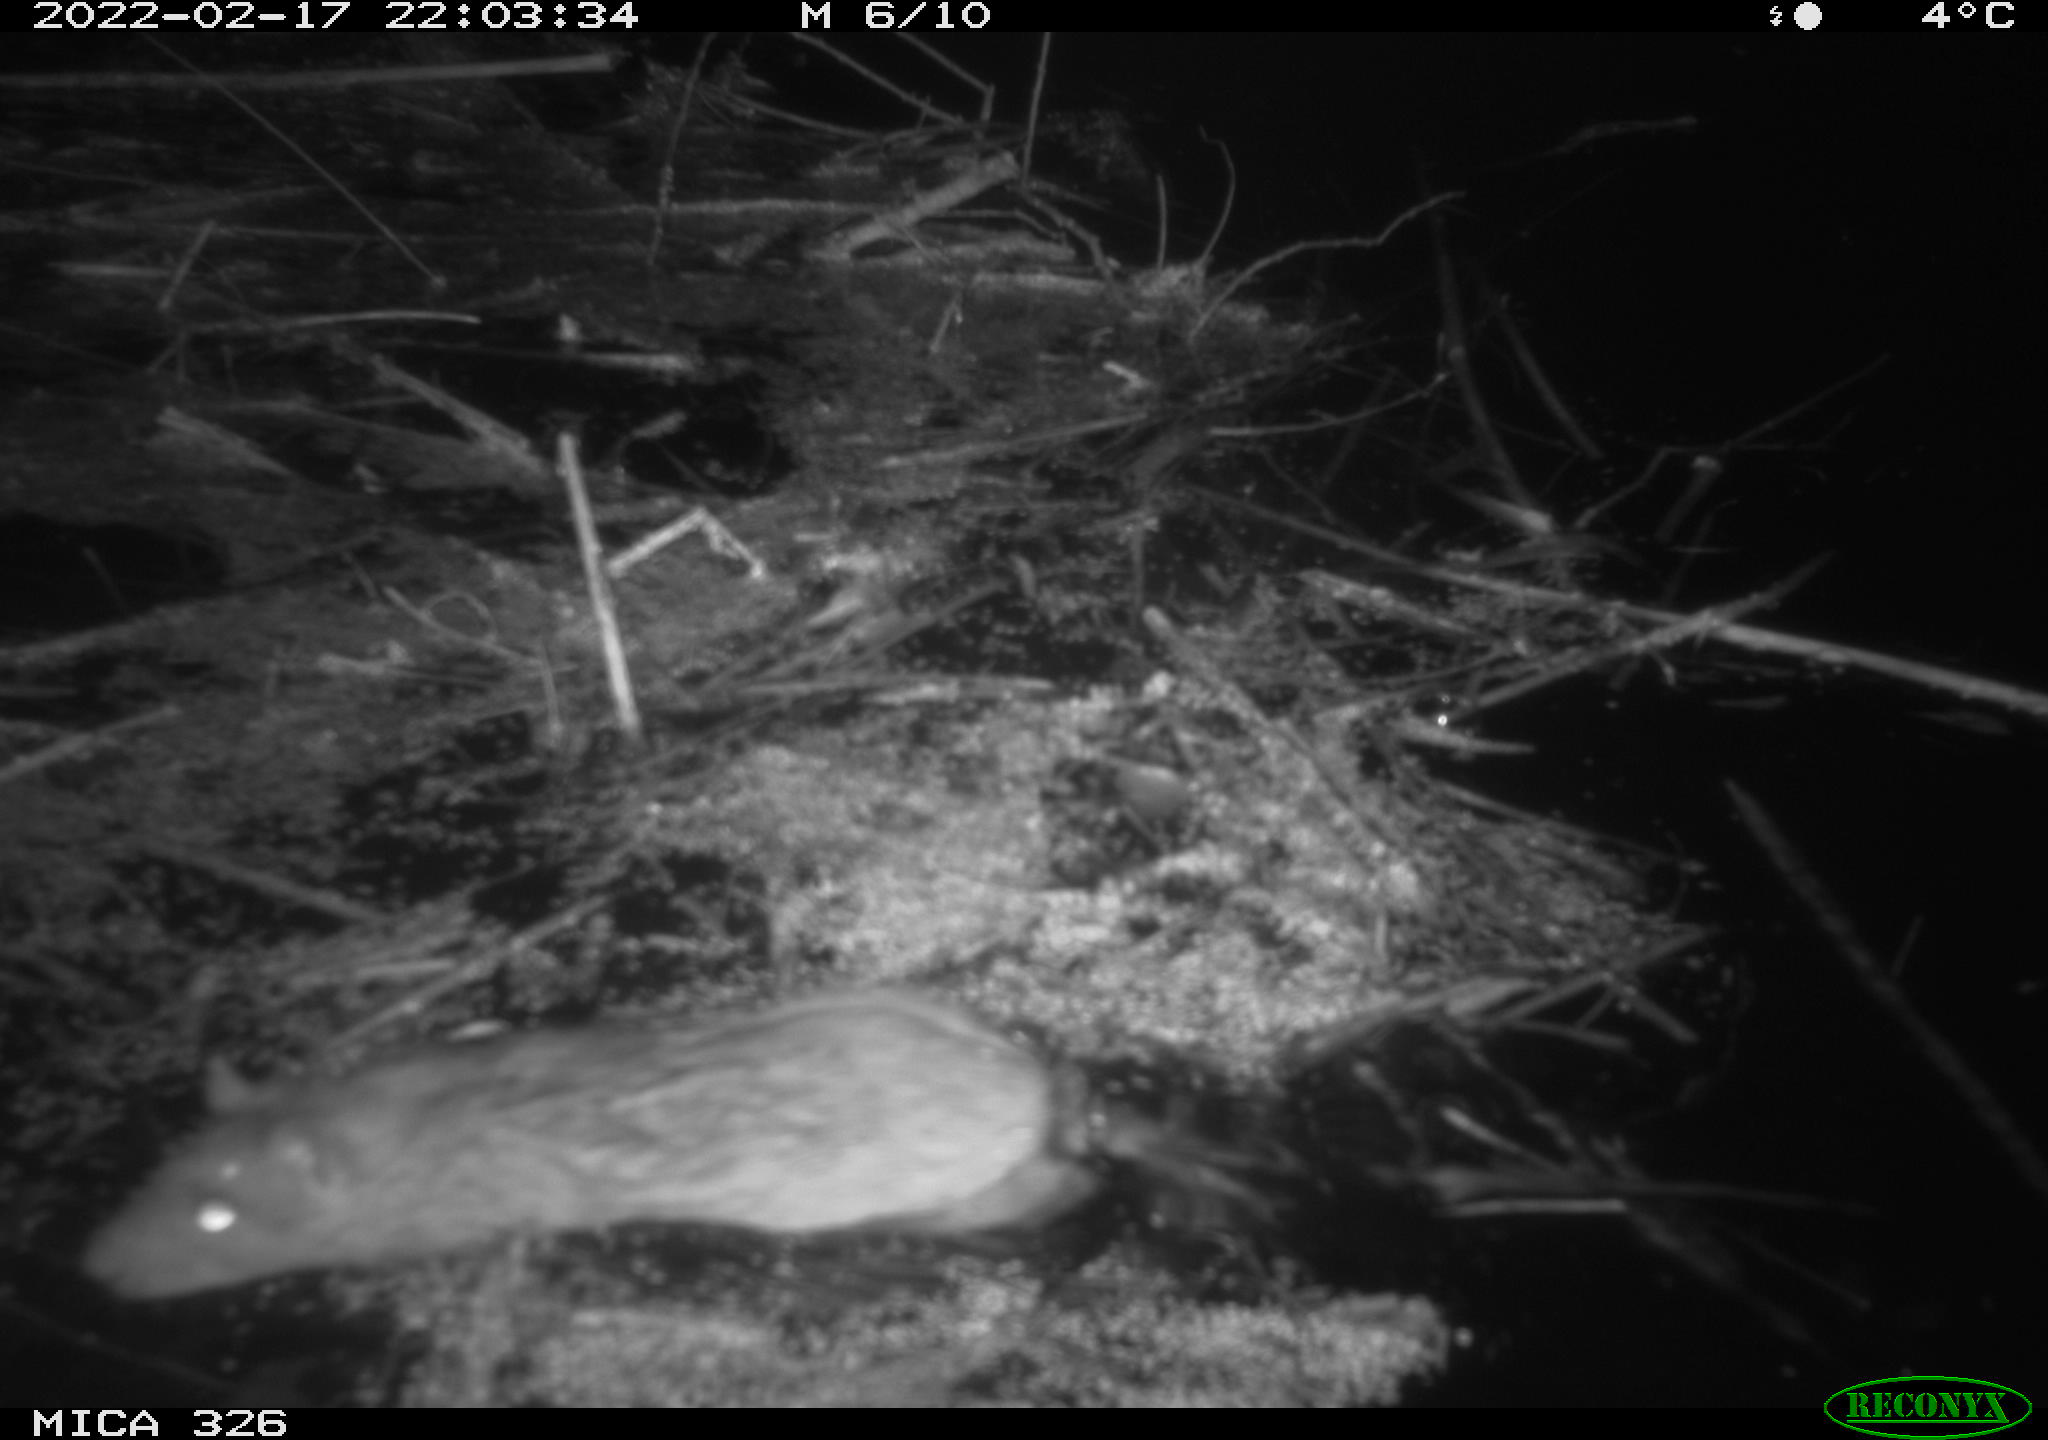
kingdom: Animalia
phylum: Chordata
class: Mammalia
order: Rodentia
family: Muridae
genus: Rattus
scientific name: Rattus norvegicus
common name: Brown rat
